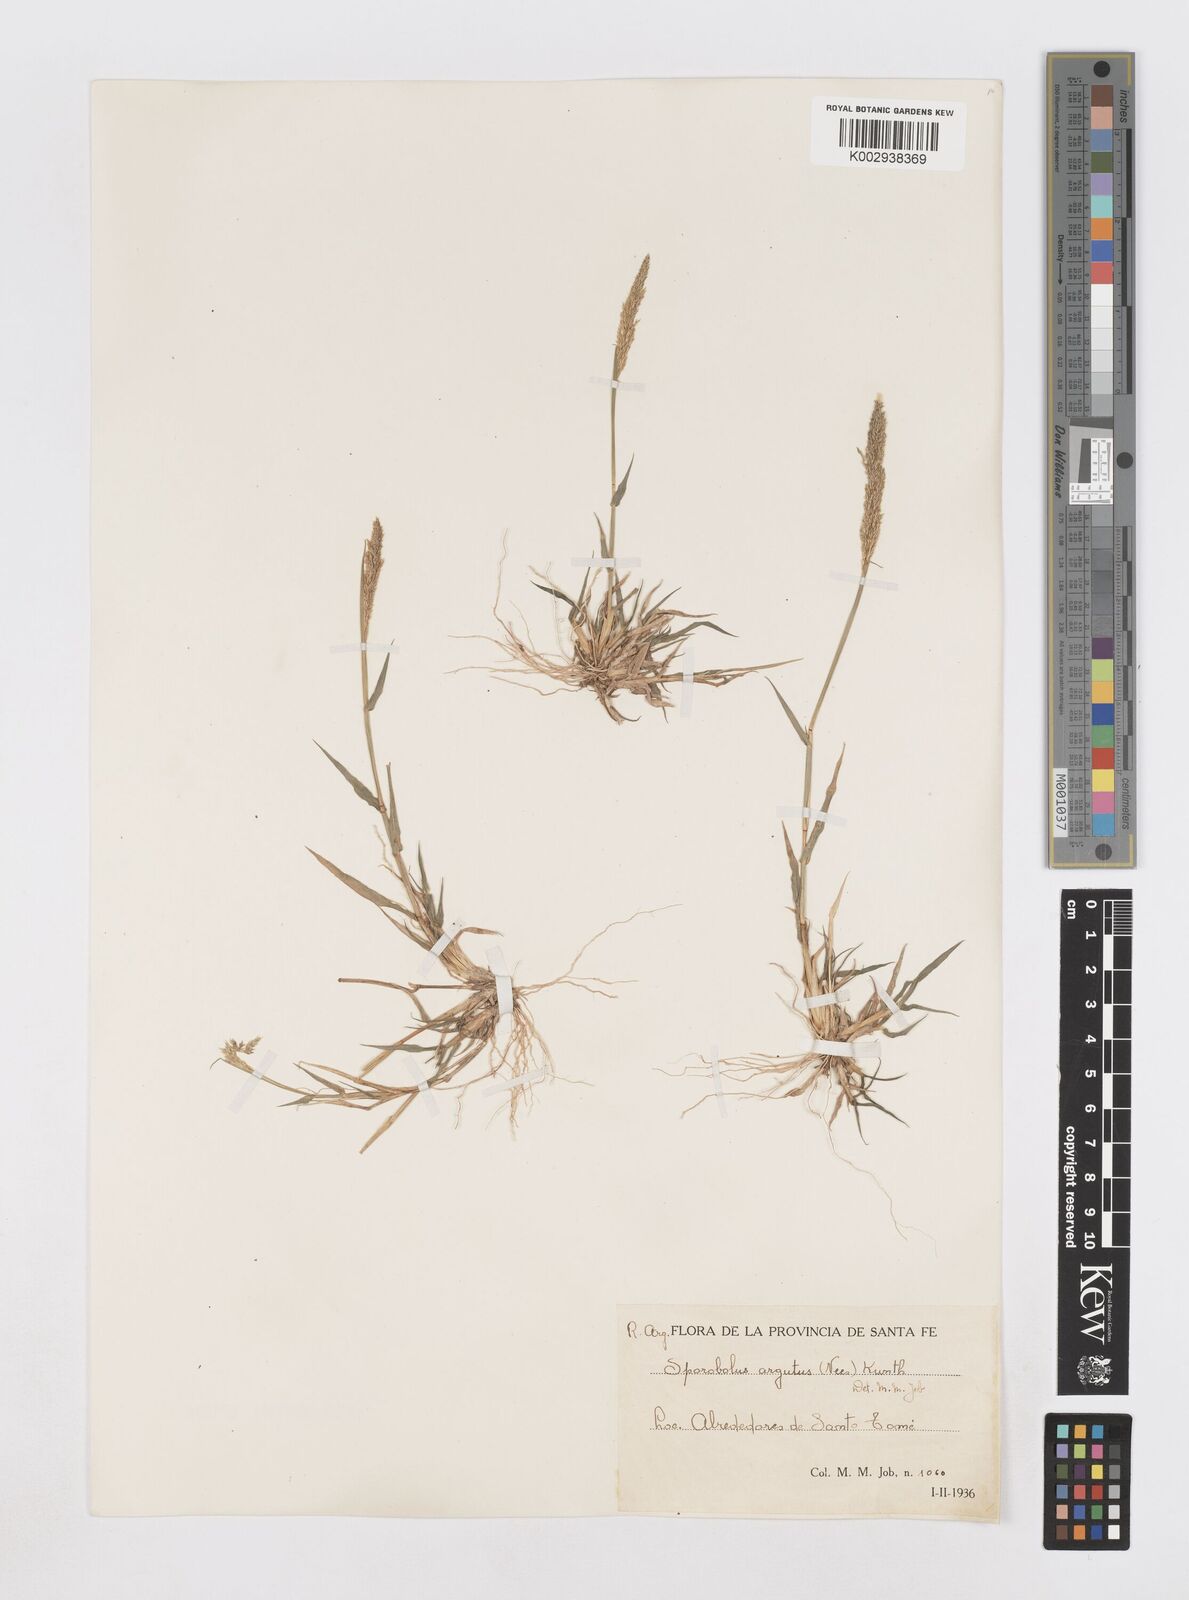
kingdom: Plantae
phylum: Tracheophyta
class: Liliopsida
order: Poales
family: Poaceae
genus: Sporobolus
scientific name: Sporobolus pyramidatus
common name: Whorled dropseed
